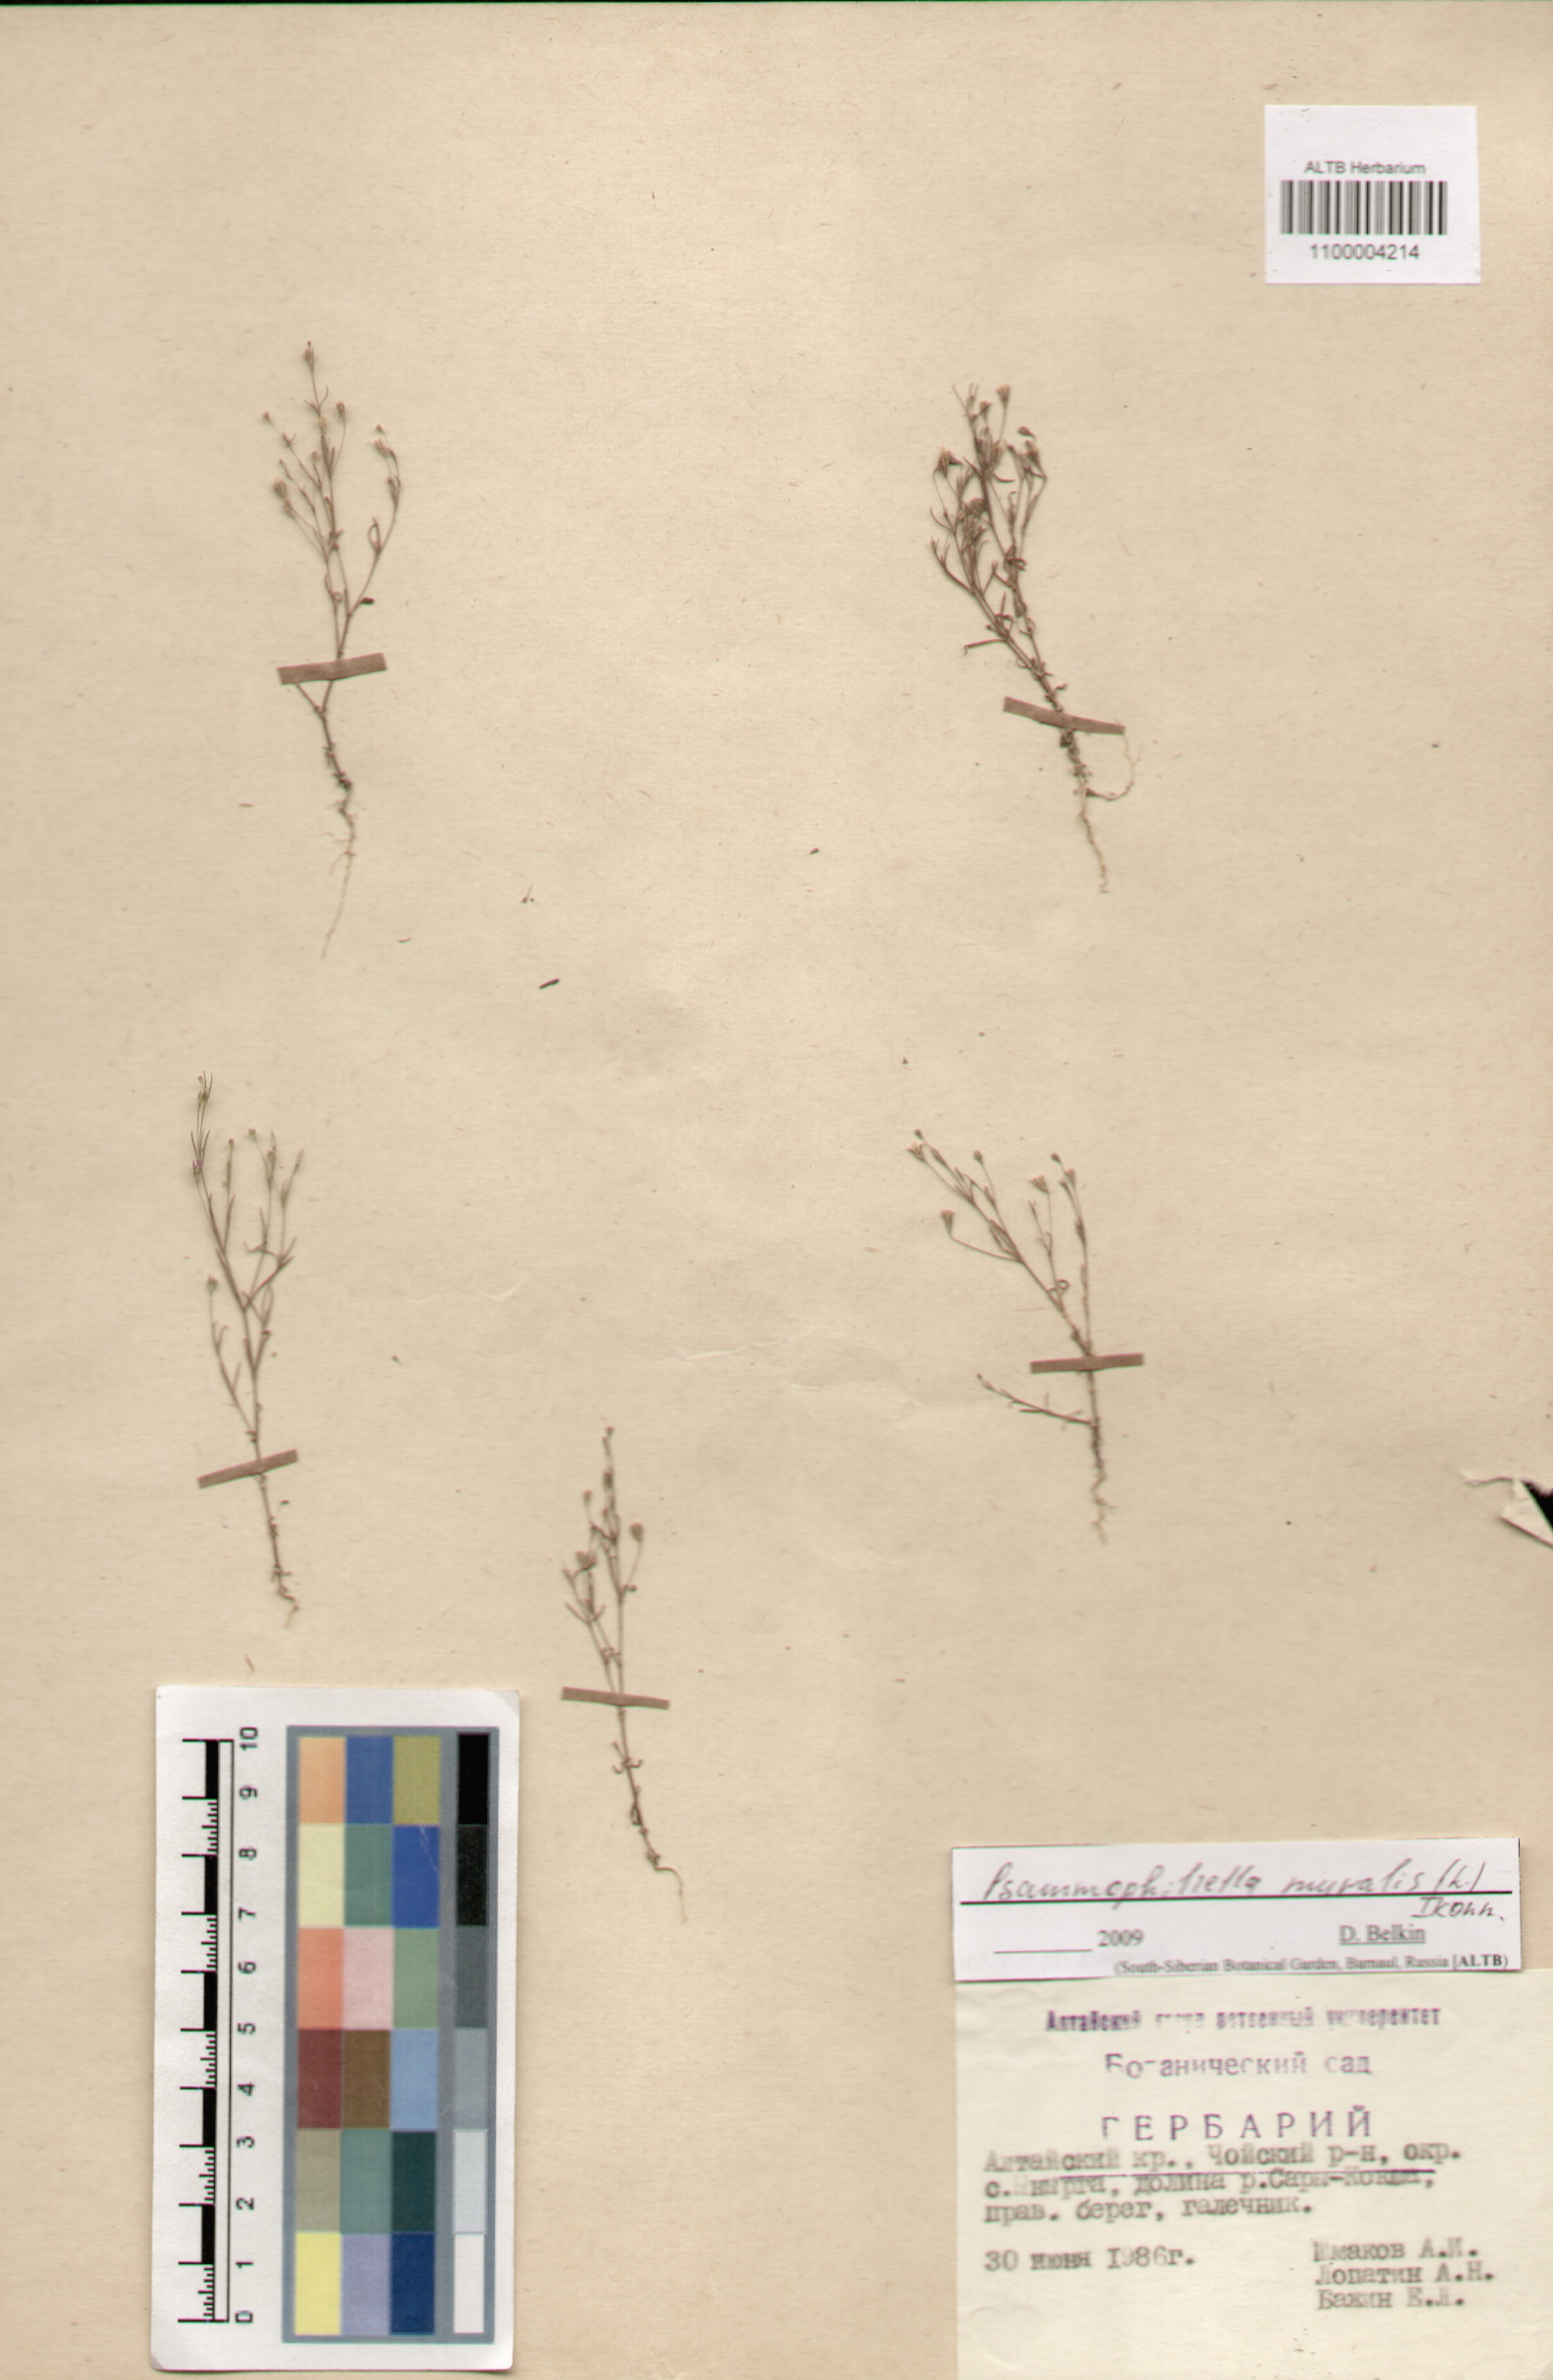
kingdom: Plantae
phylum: Tracheophyta
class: Magnoliopsida
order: Caryophyllales
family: Caryophyllaceae
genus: Psammophiliella
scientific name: Psammophiliella muralis
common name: Cushion baby's-breath
